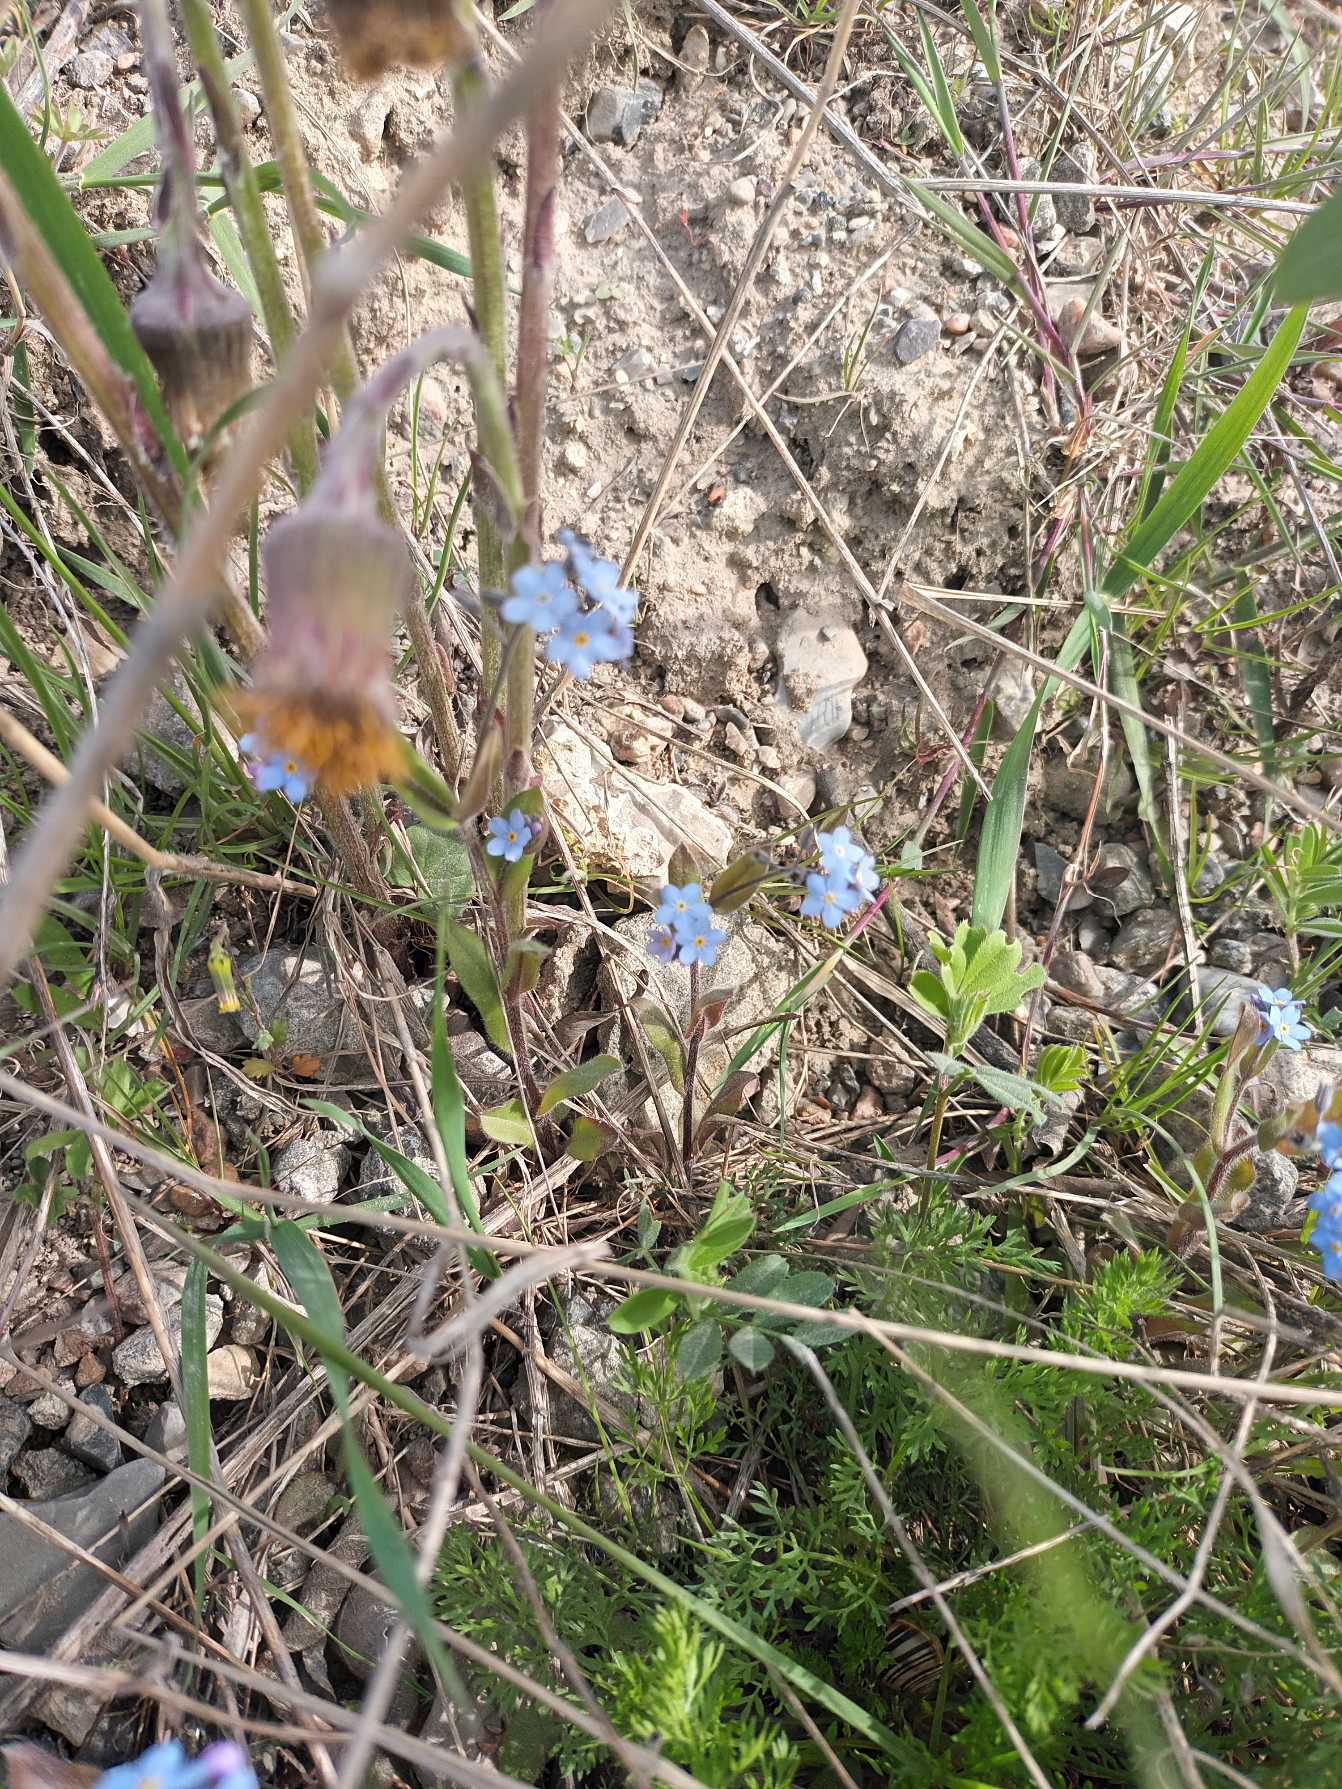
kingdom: Plantae
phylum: Tracheophyta
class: Magnoliopsida
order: Boraginales
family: Boraginaceae
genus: Myosotis
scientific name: Myosotis sylvatica
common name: Skov-forglemmigej
